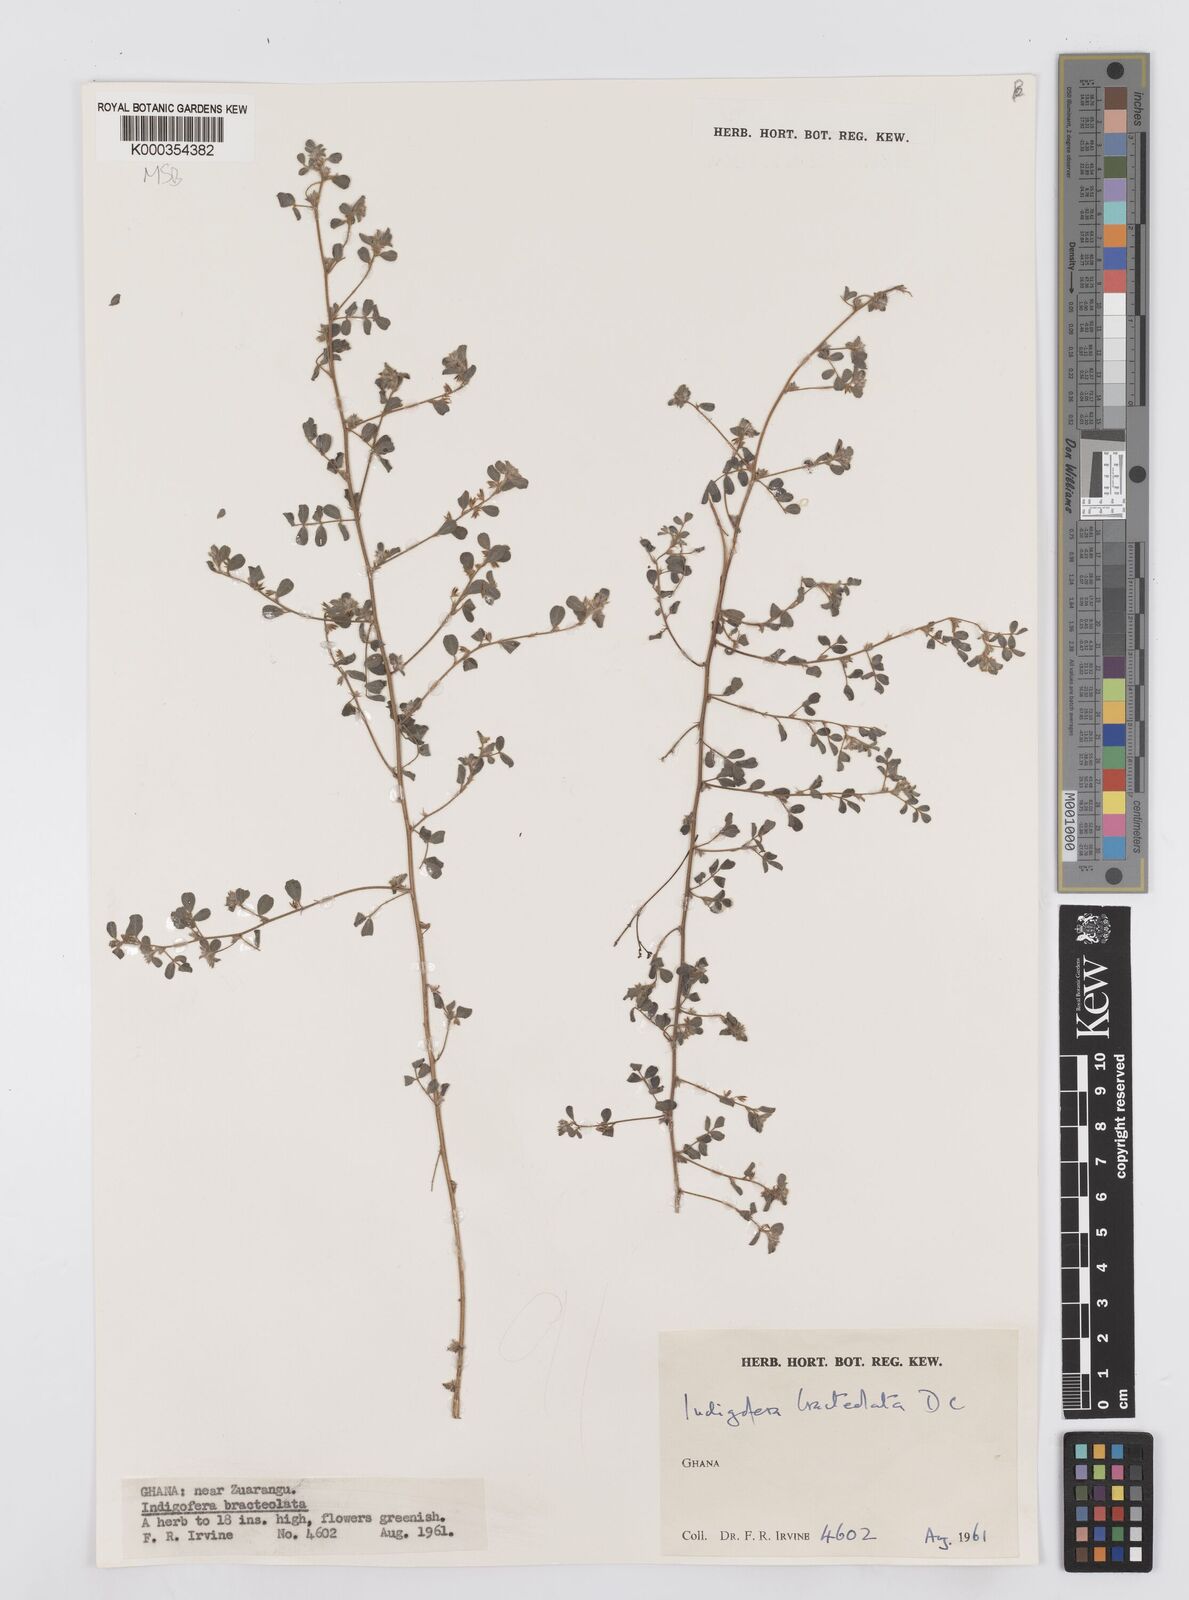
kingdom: Plantae
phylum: Tracheophyta
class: Magnoliopsida
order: Fabales
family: Fabaceae
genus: Indigofera
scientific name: Indigofera bracteolata
